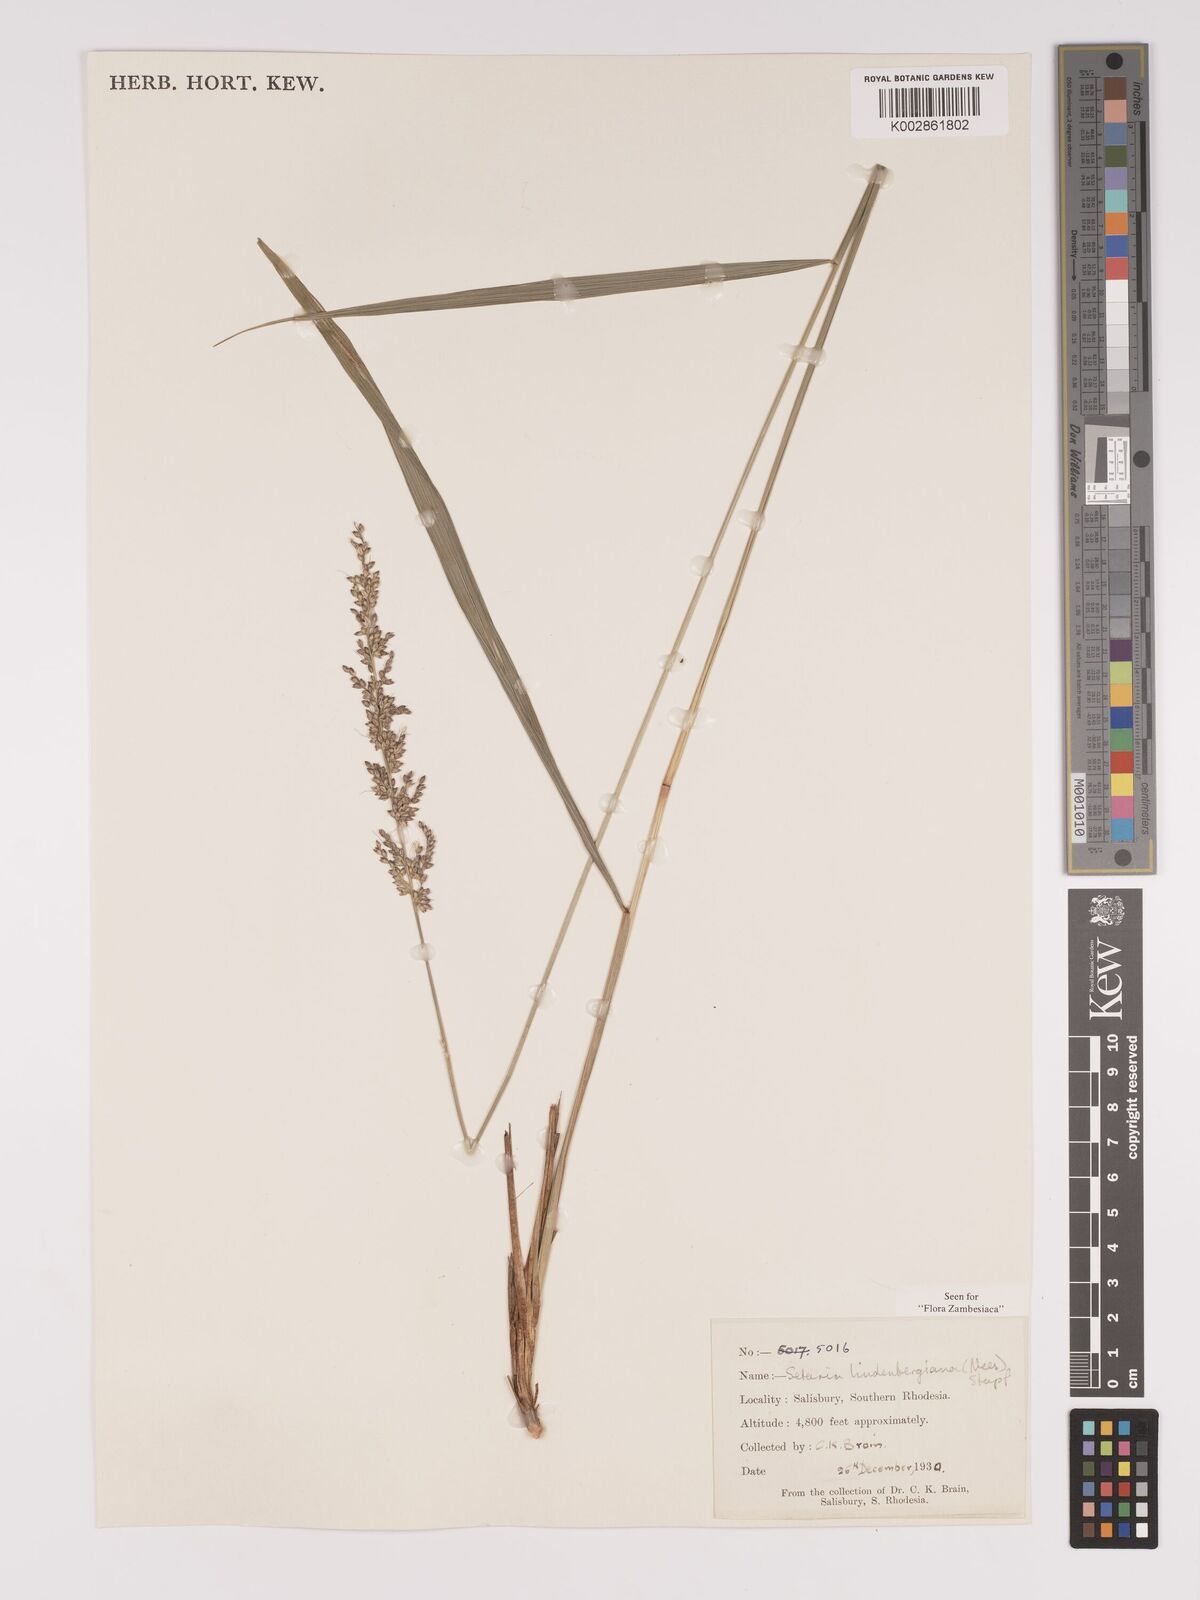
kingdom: Plantae
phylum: Tracheophyta
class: Liliopsida
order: Poales
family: Poaceae
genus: Setaria
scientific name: Setaria lindenbergiana
